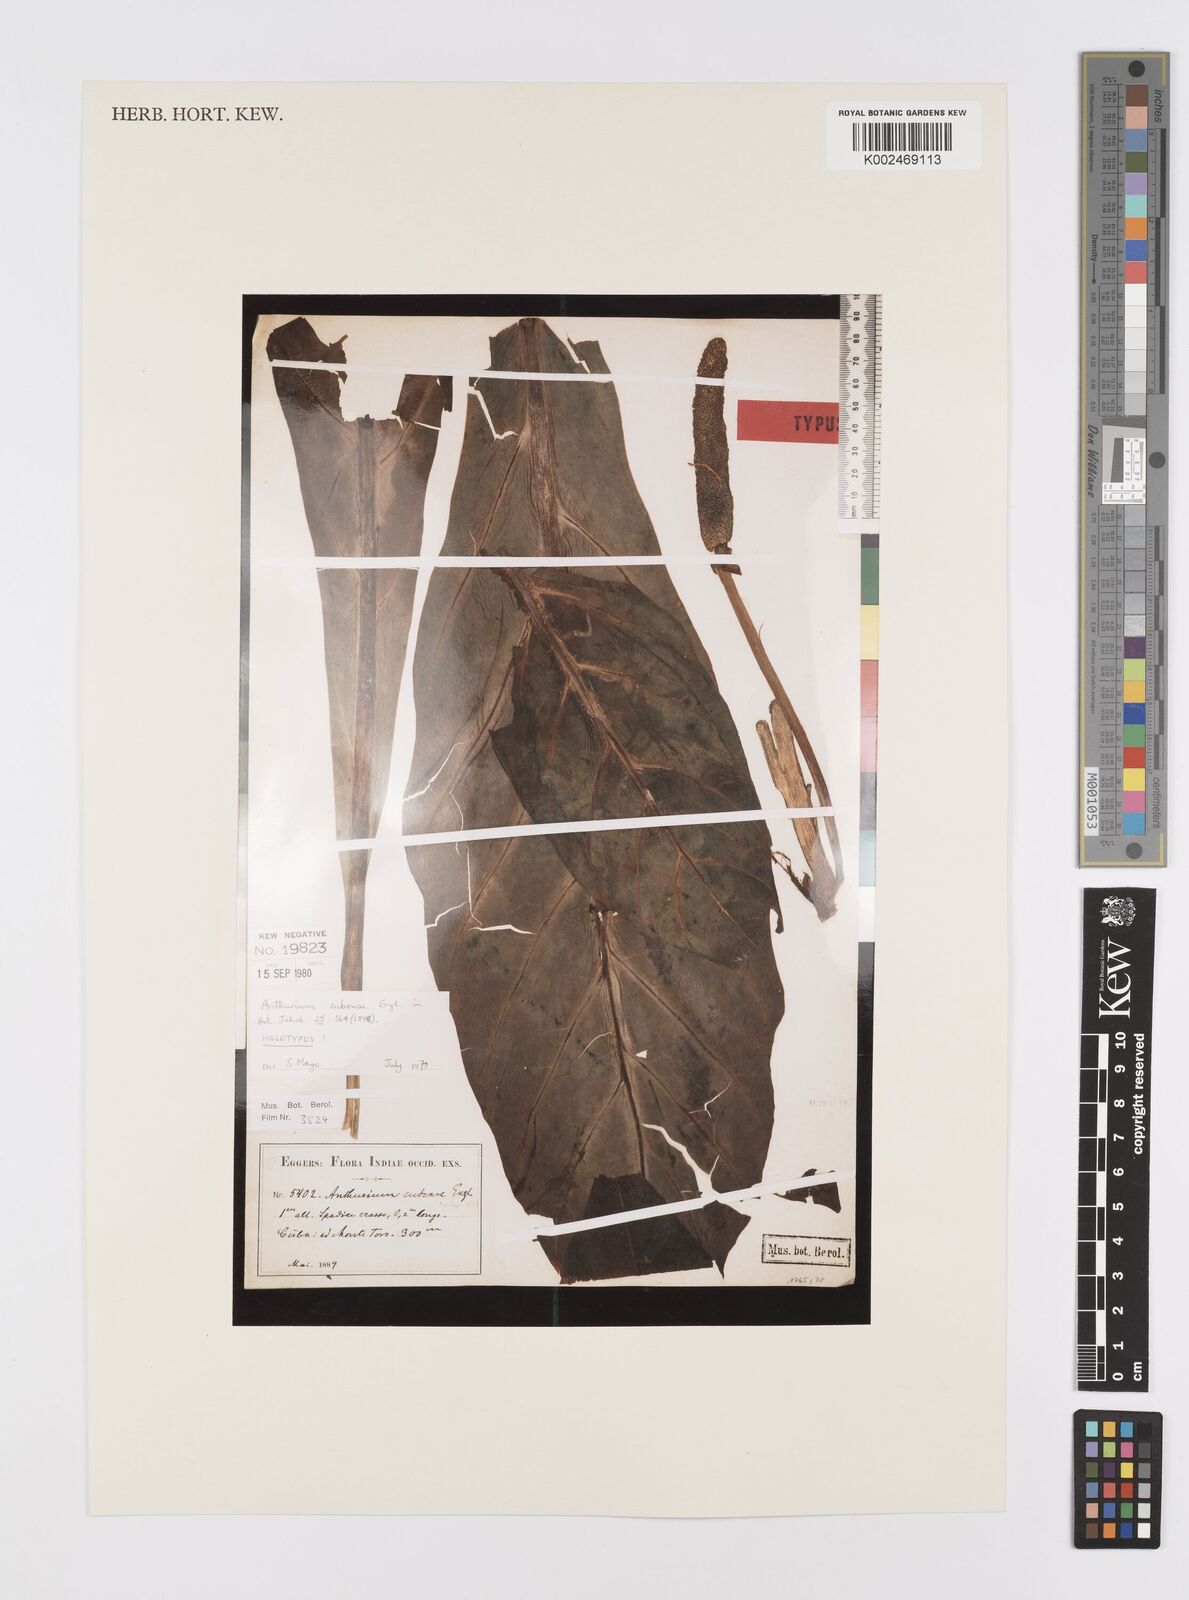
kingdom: Plantae
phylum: Tracheophyta
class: Liliopsida
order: Alismatales
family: Araceae
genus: Anthurium
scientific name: Anthurium cubense
